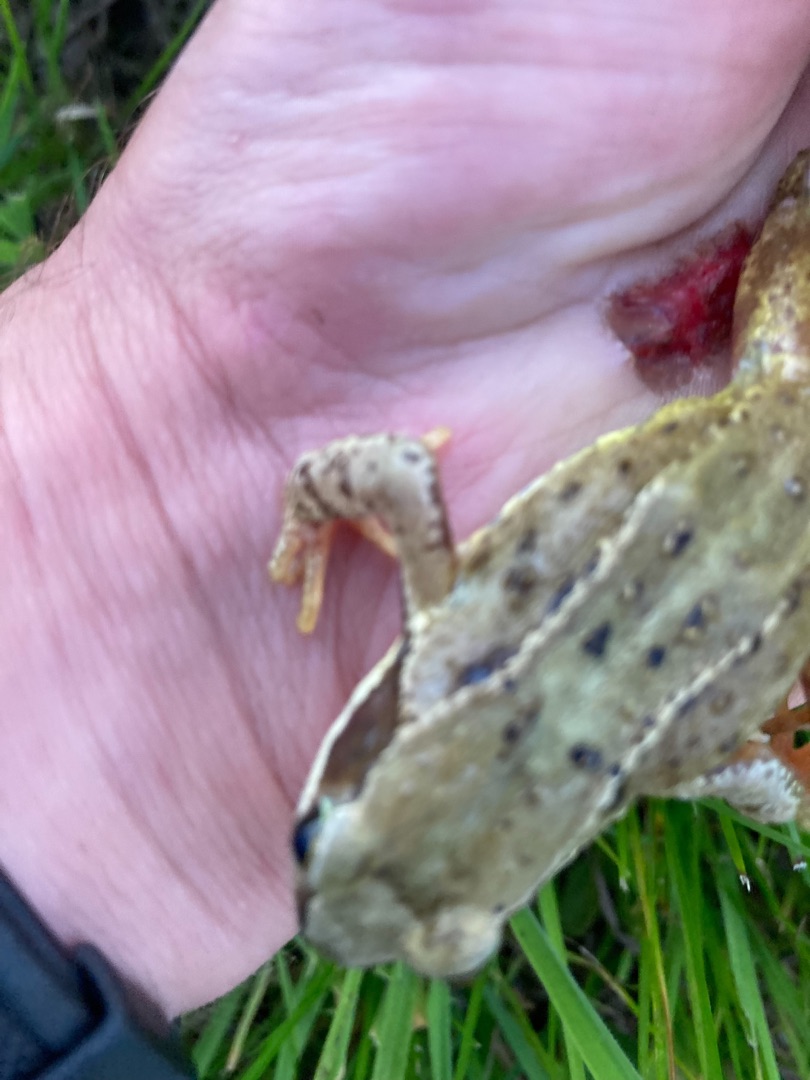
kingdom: Animalia
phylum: Chordata
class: Amphibia
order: Anura
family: Ranidae
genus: Rana
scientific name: Rana temporaria
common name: Butsnudet frø
